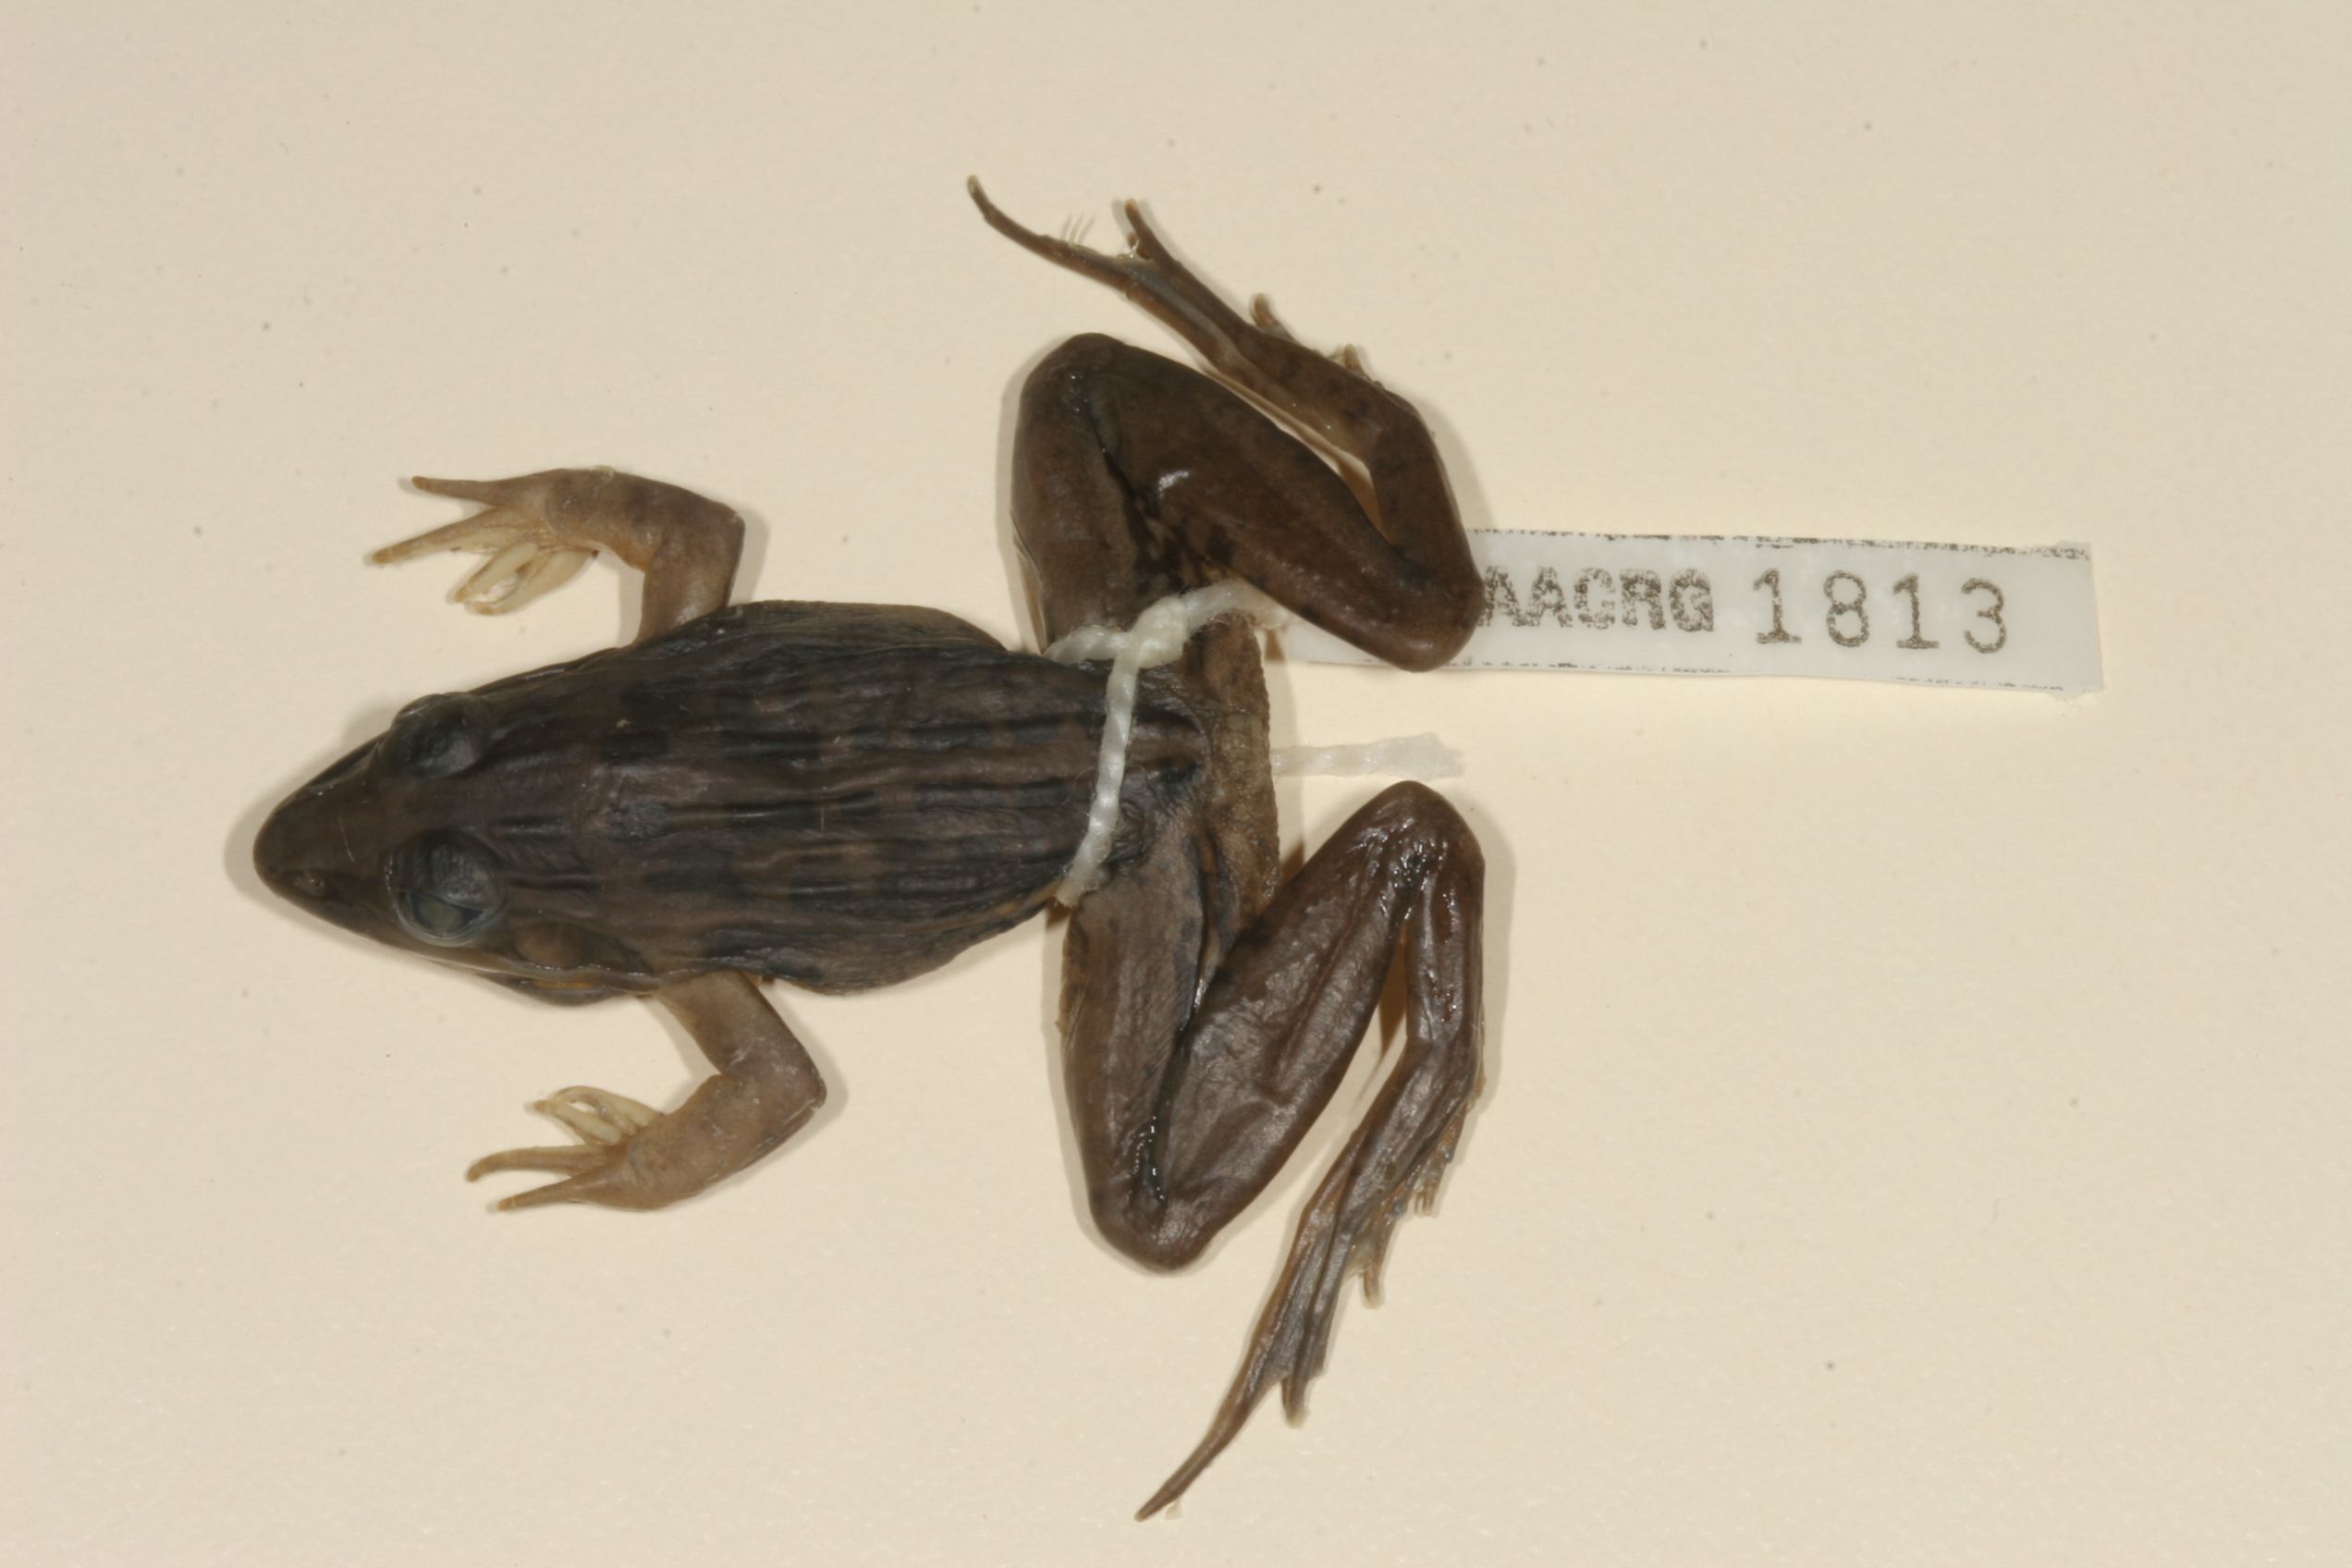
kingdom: Animalia
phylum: Chordata
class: Amphibia
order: Anura
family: Ptychadenidae
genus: Ptychadena
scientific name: Ptychadena mascareniensis
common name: Mascarene grass frog
